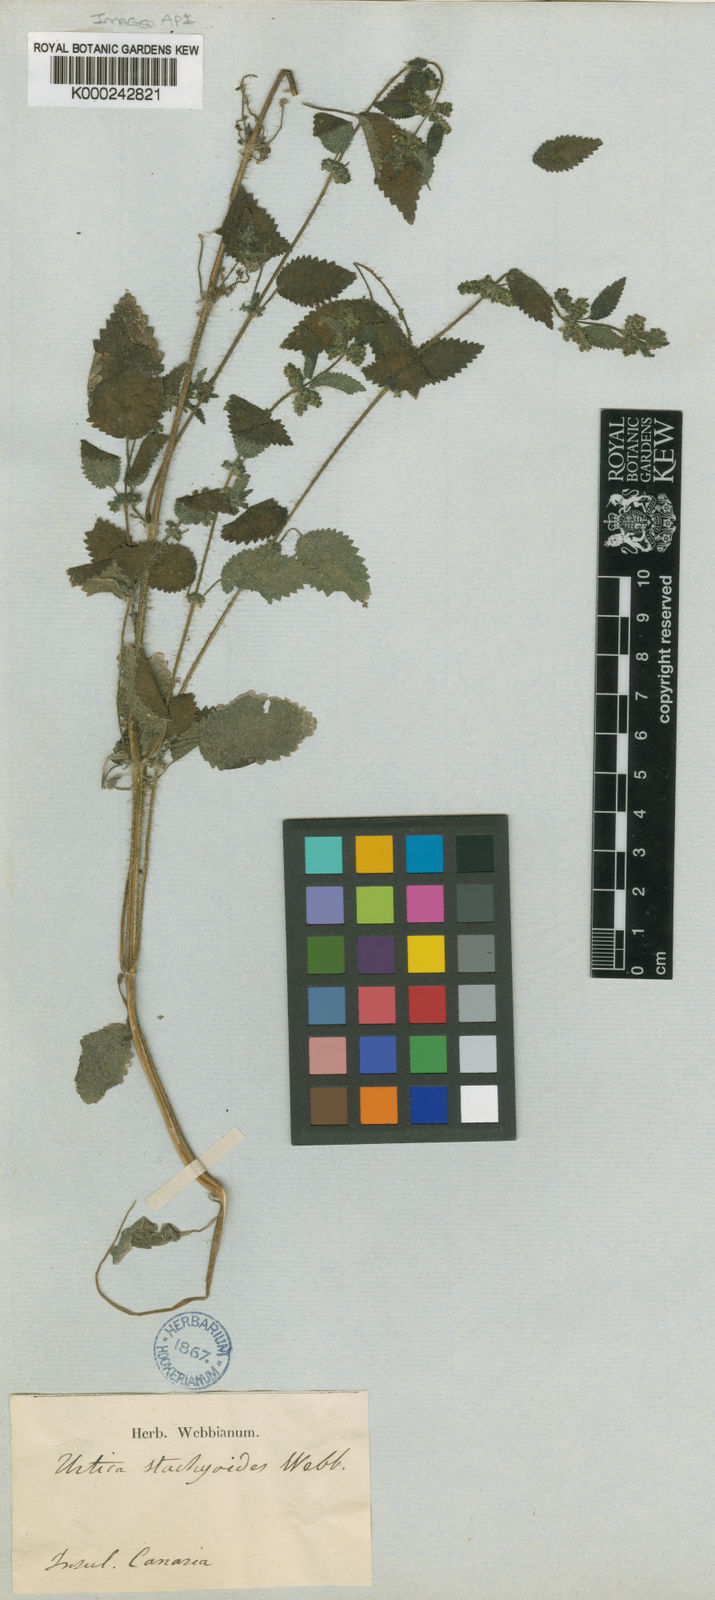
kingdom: Plantae
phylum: Tracheophyta
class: Magnoliopsida
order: Rosales
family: Urticaceae
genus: Urtica
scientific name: Urtica stachyoides
